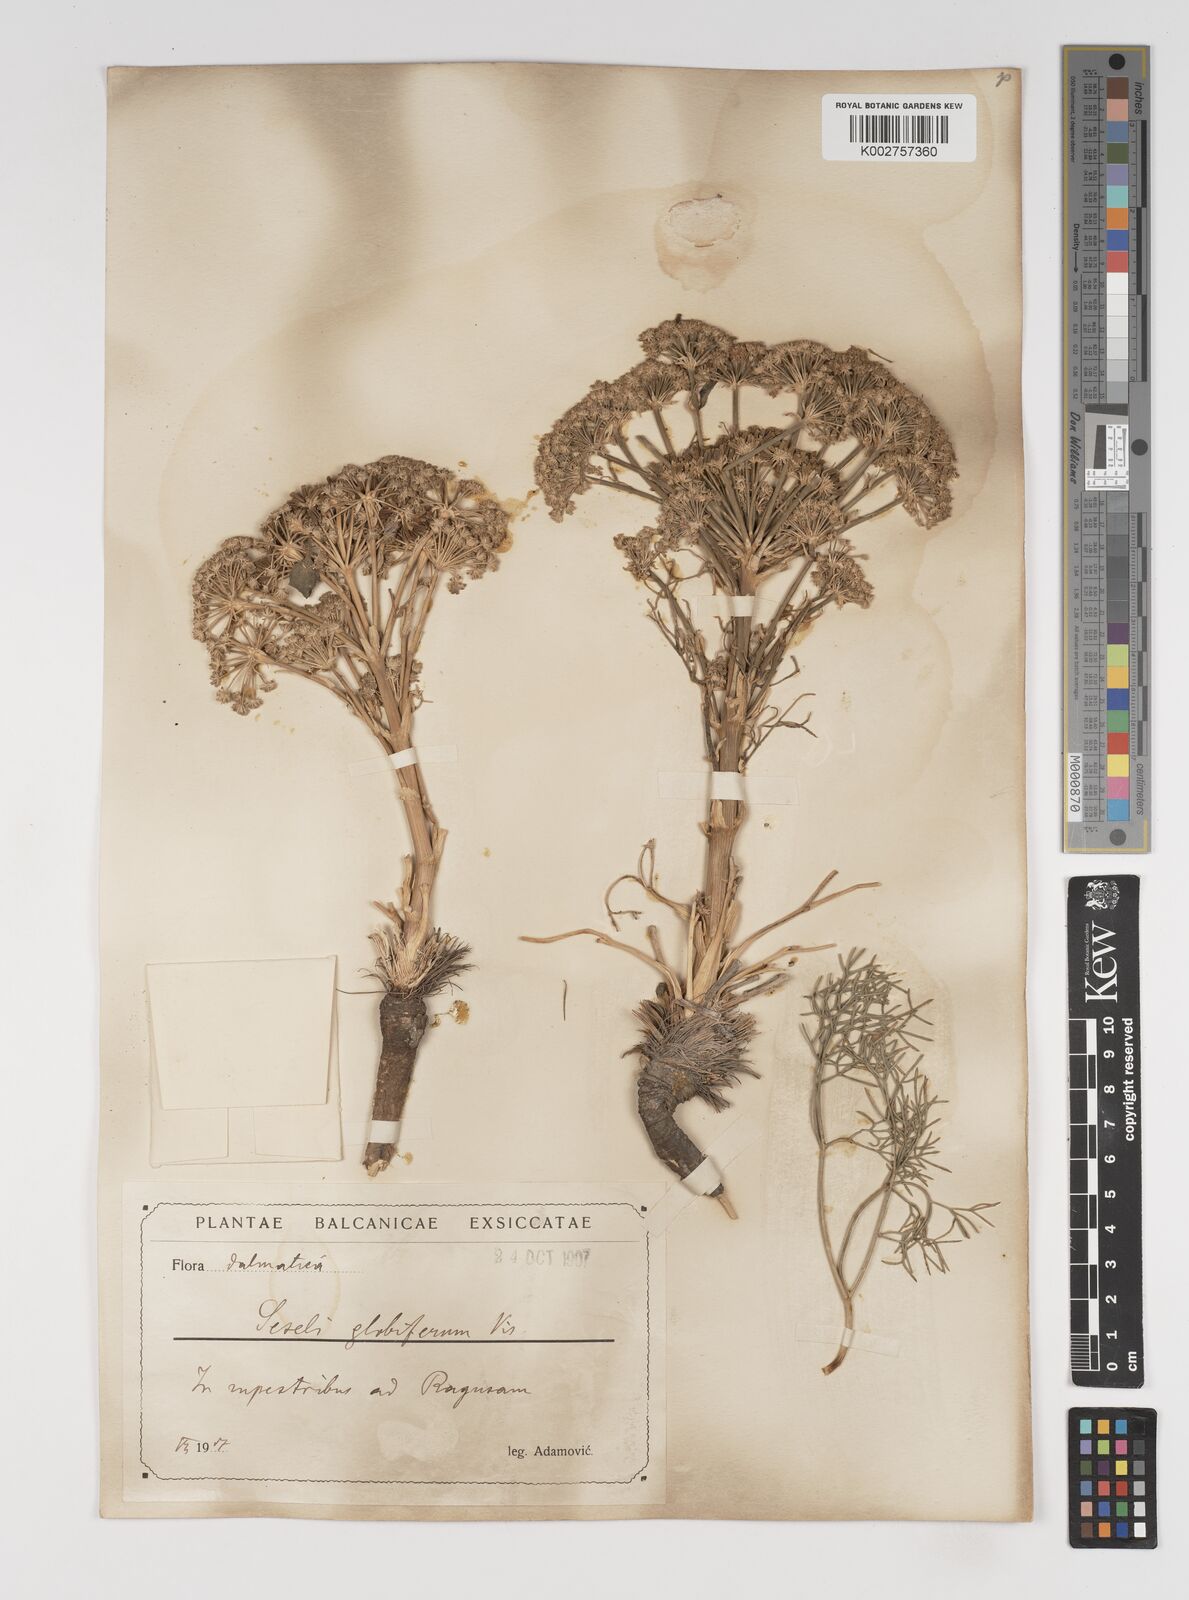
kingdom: Plantae
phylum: Tracheophyta
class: Magnoliopsida
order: Apiales
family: Apiaceae
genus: Seseli
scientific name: Seseli globiferum
